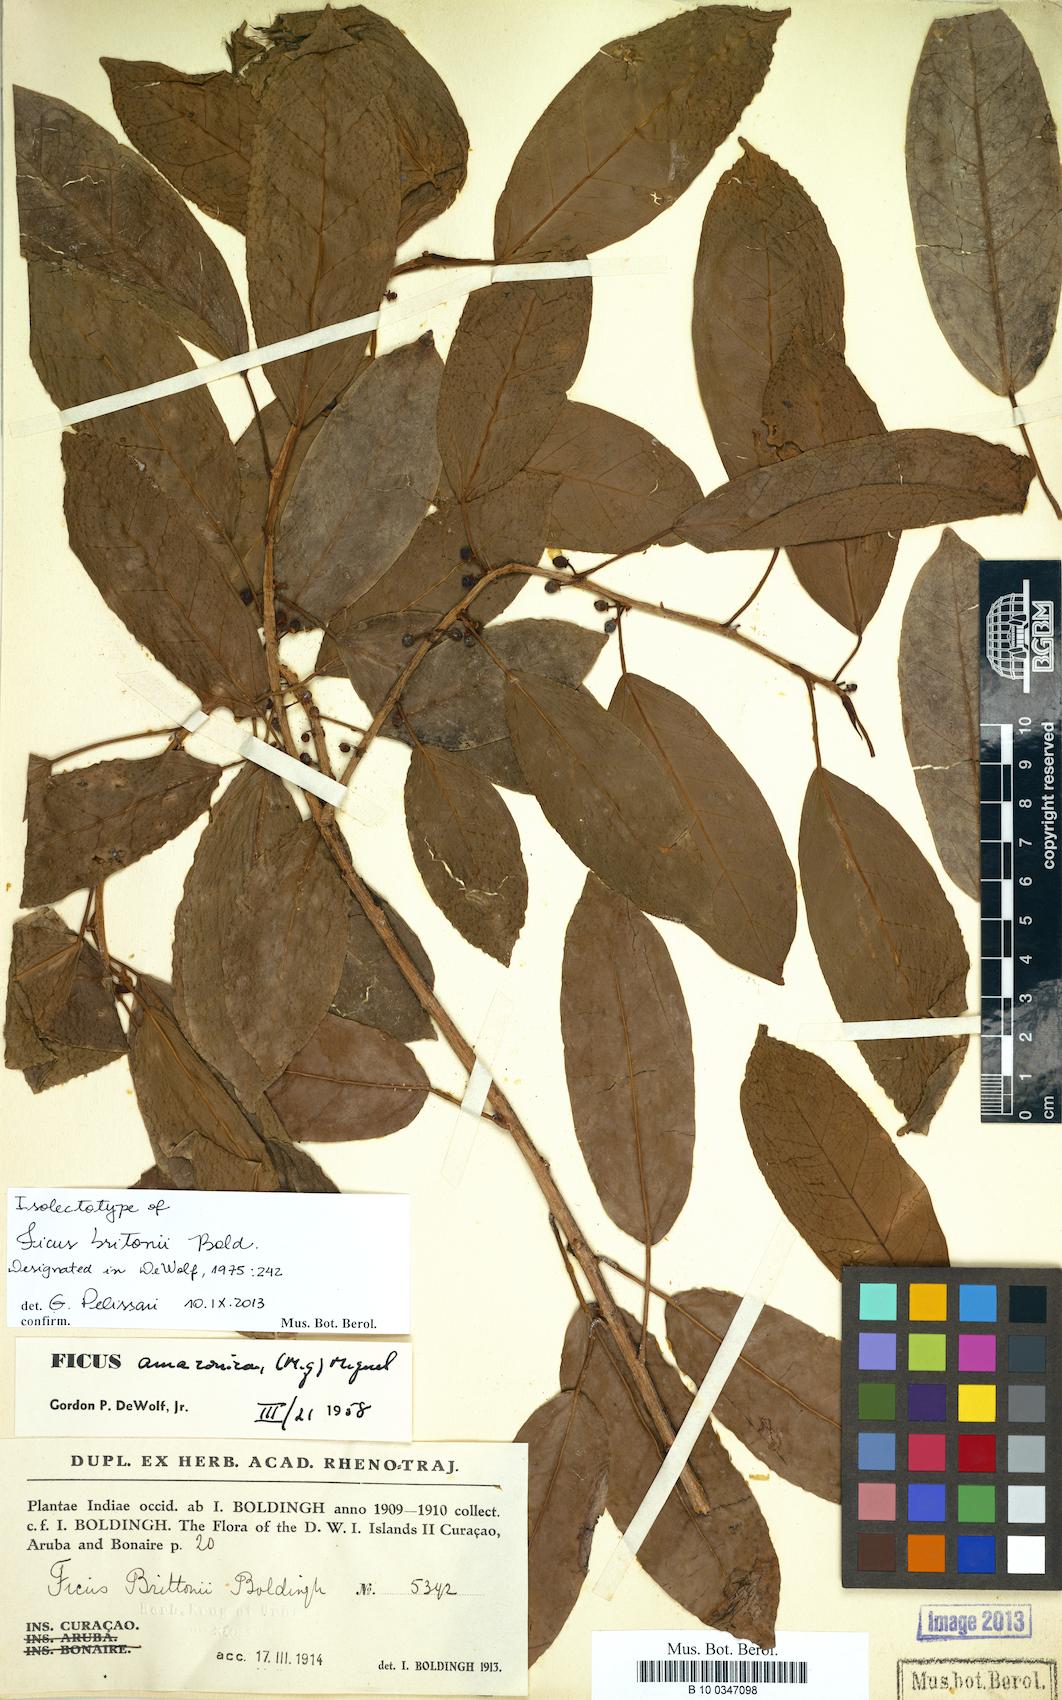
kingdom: Plantae
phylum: Tracheophyta
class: Magnoliopsida
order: Rosales
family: Moraceae
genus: Ficus
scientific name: Ficus brittonii
